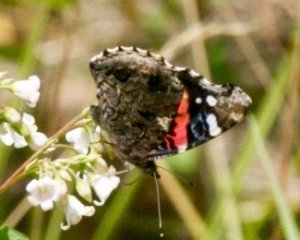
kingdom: Animalia
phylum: Arthropoda
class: Insecta
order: Lepidoptera
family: Nymphalidae
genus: Vanessa
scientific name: Vanessa atalanta
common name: Red Admiral
